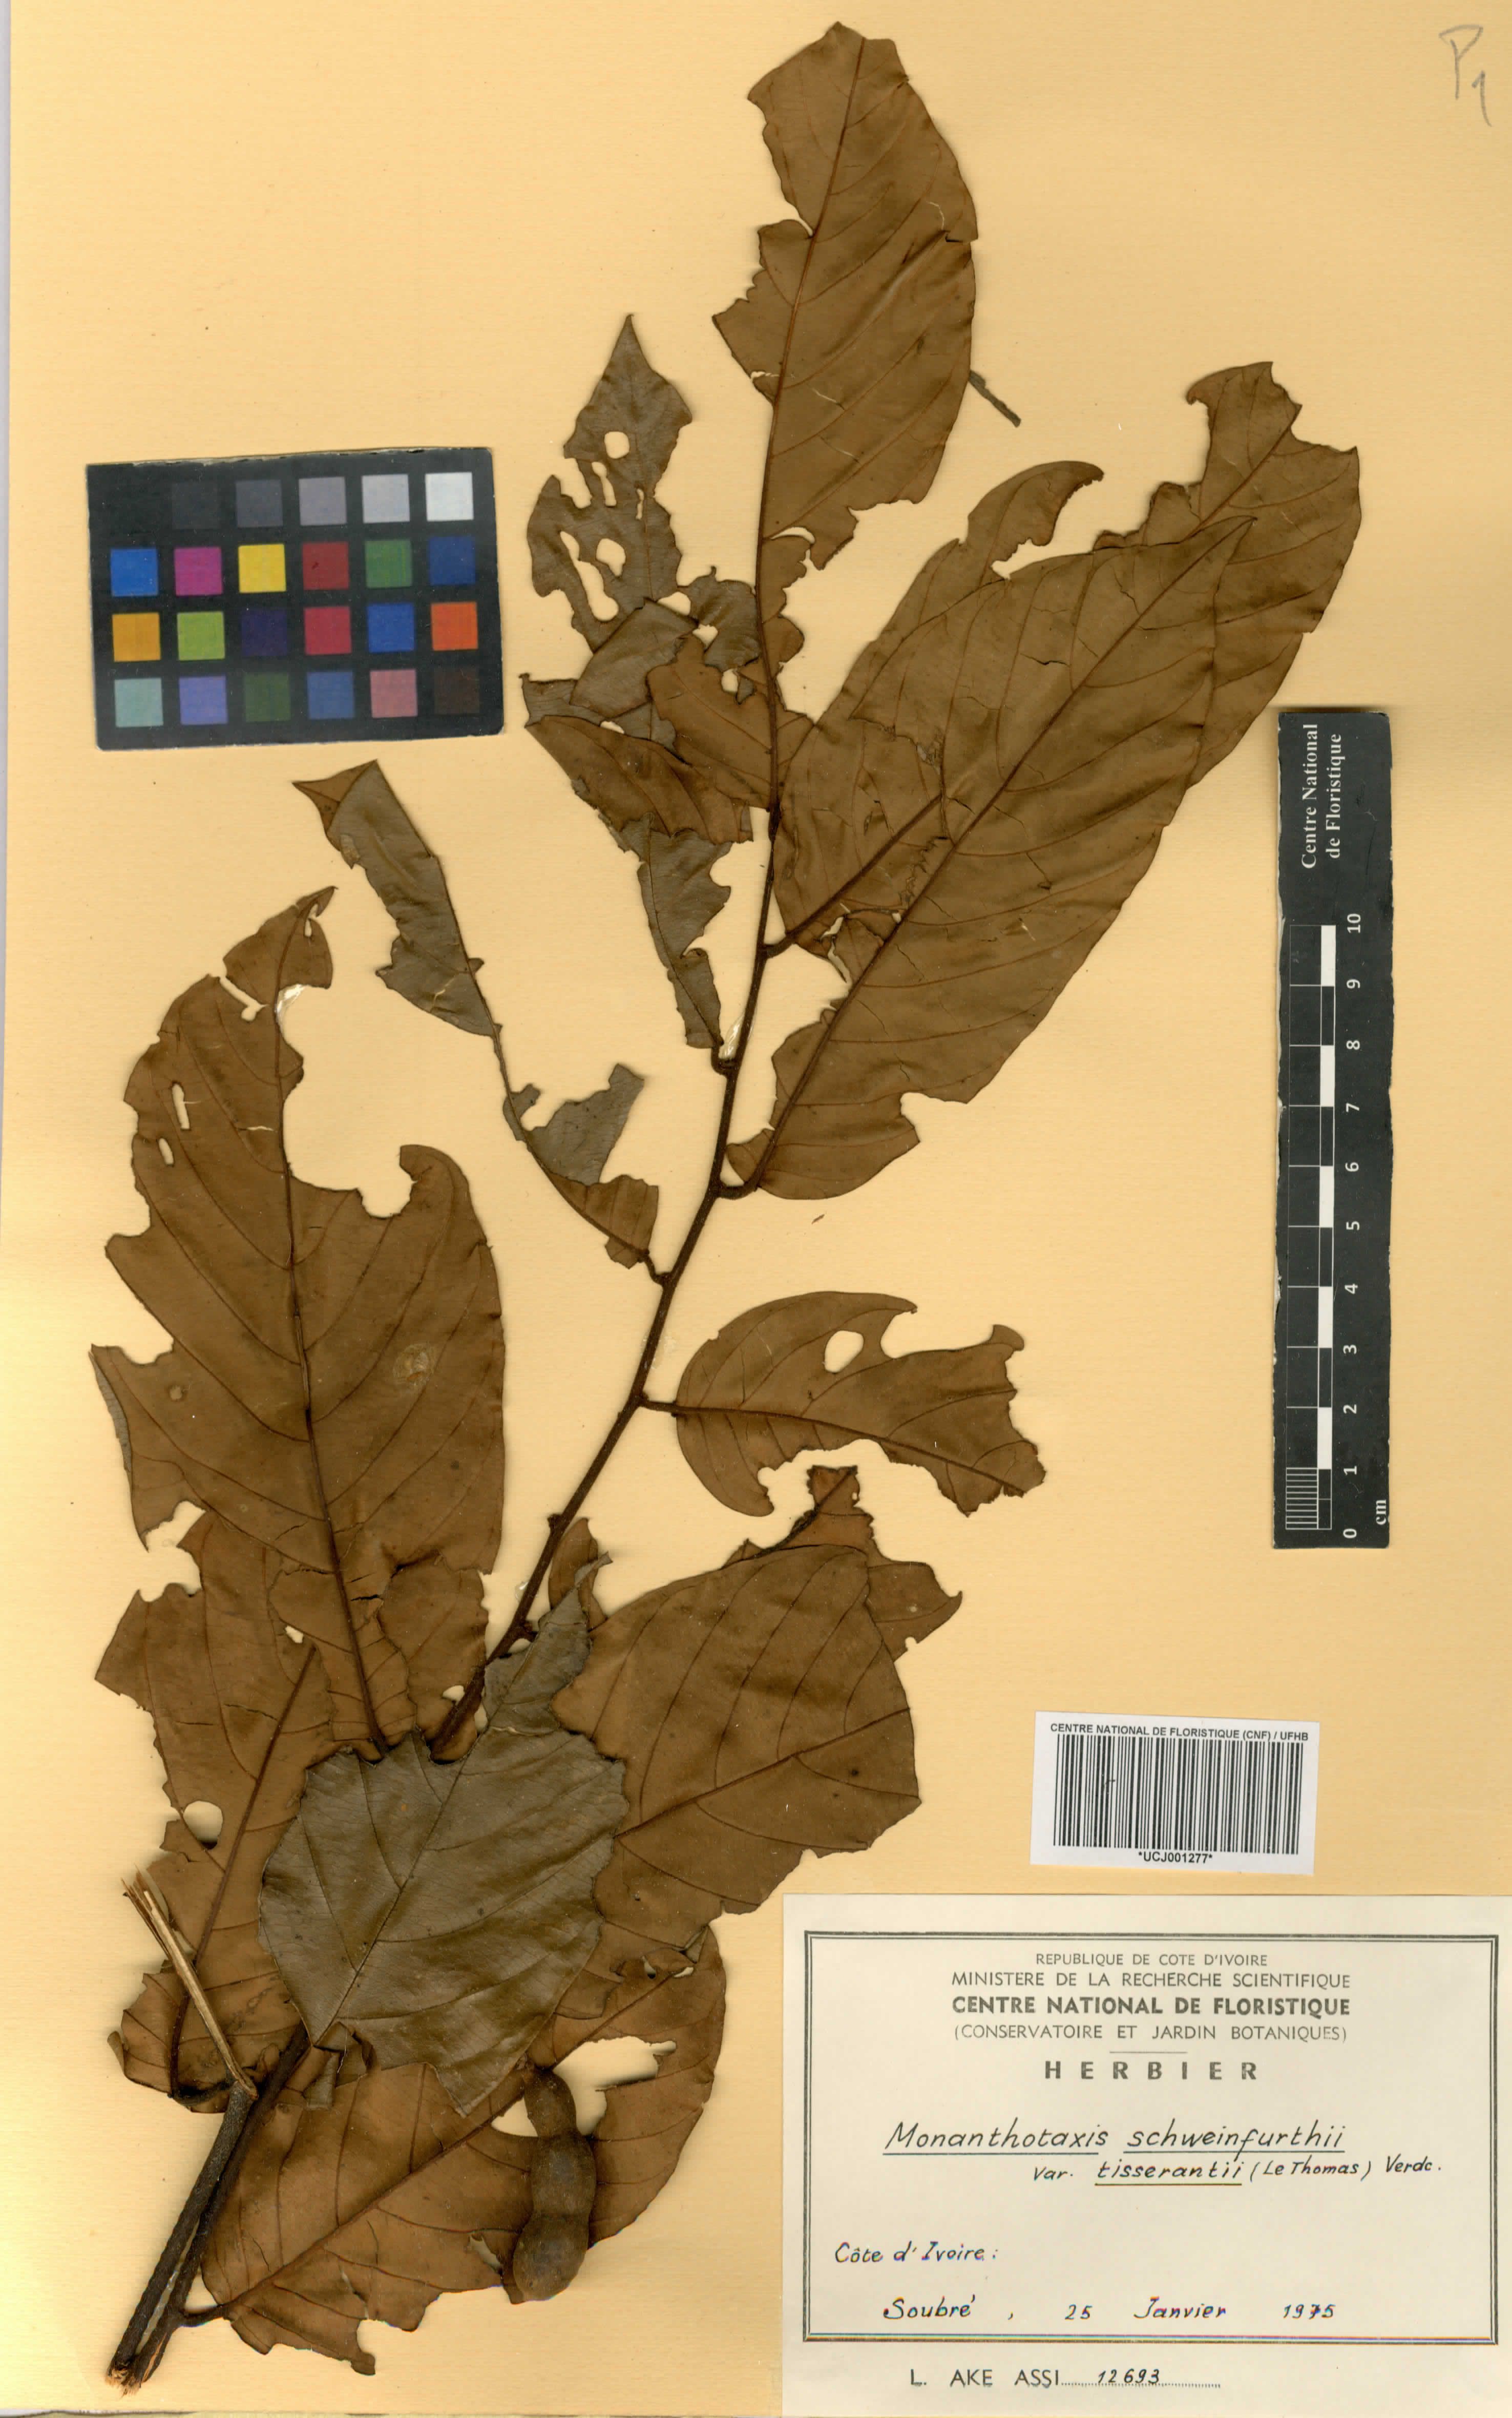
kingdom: Plantae
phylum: Tracheophyta
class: Magnoliopsida
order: Magnoliales
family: Annonaceae
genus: Monanthotaxis
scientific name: Monanthotaxis schweinfurthii
